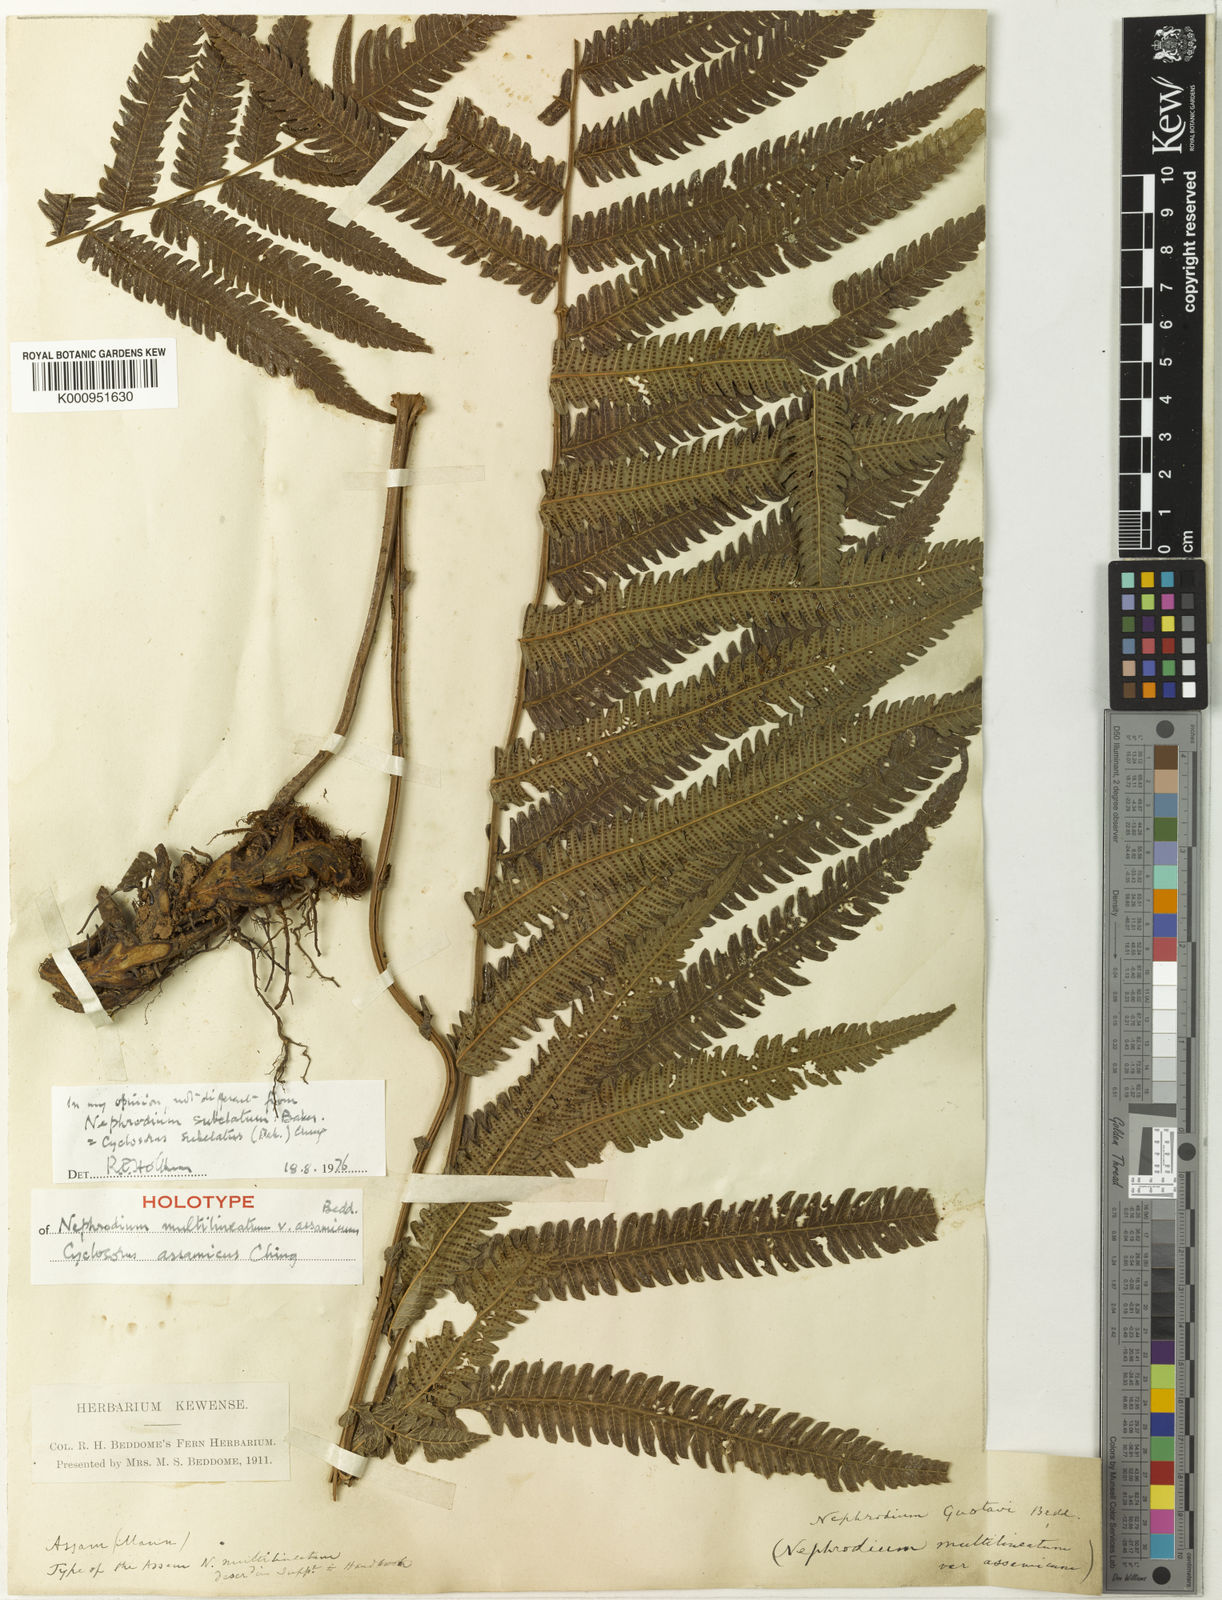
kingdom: Plantae
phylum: Tracheophyta
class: Polypodiopsida
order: Polypodiales
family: Thelypteridaceae
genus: Christella
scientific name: Christella subelata
